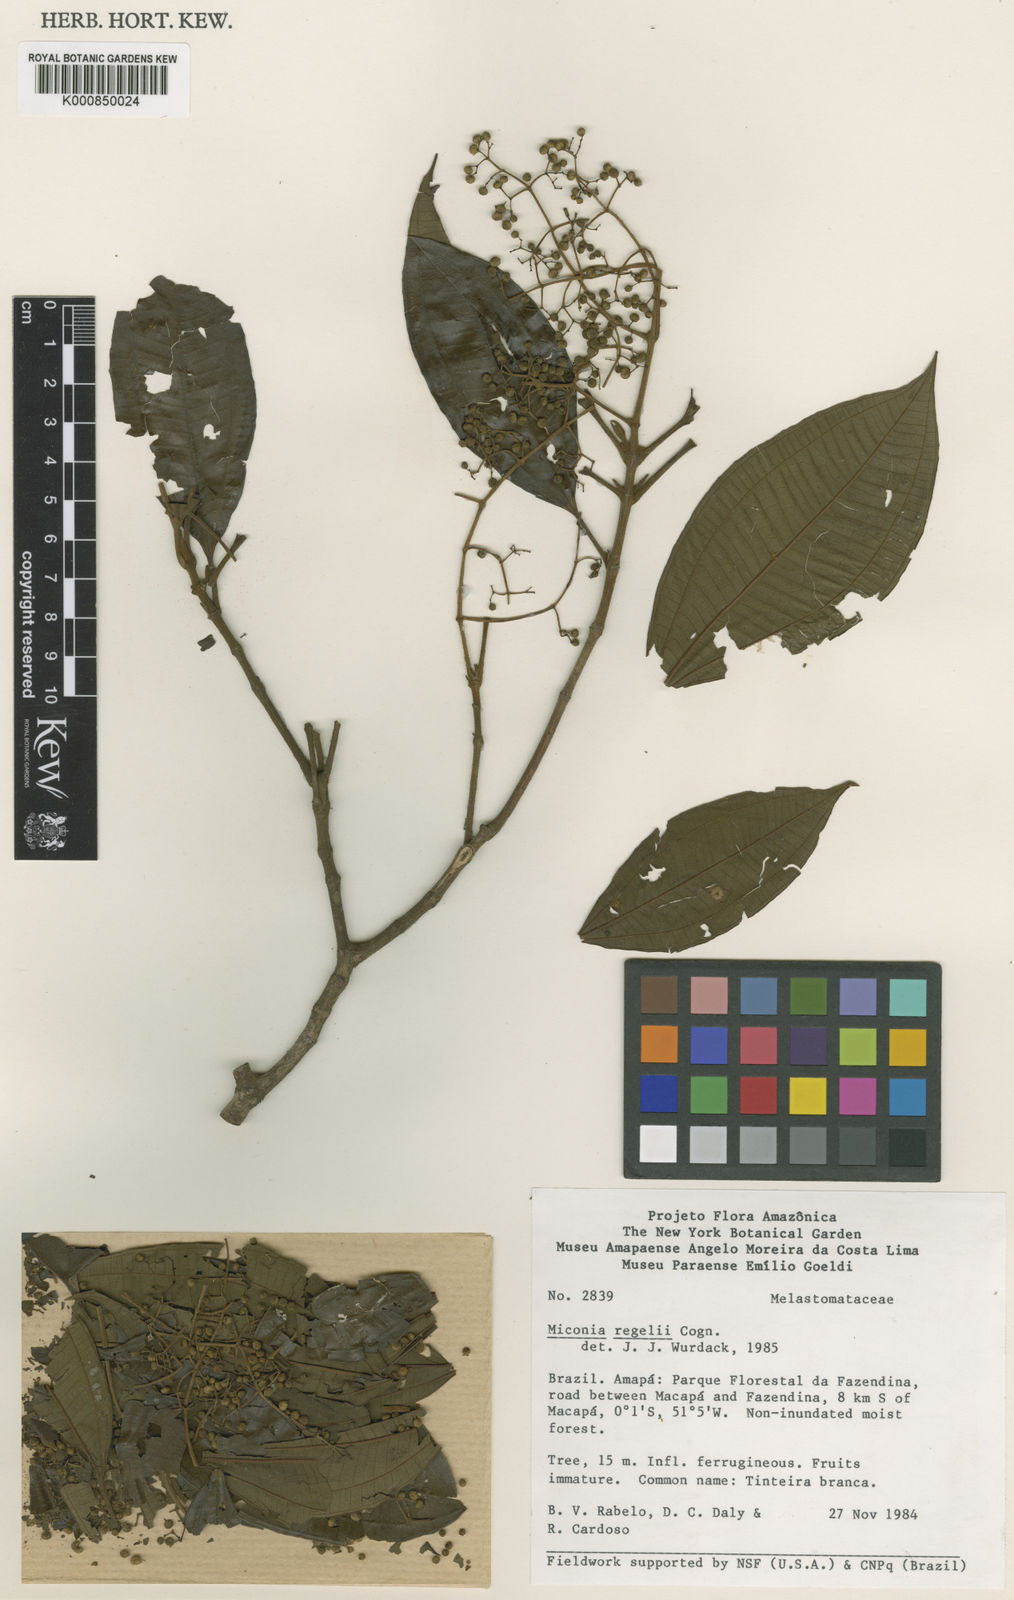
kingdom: Plantae
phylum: Tracheophyta
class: Magnoliopsida
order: Myrtales
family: Melastomataceae
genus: Miconia
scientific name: Miconia regelii
